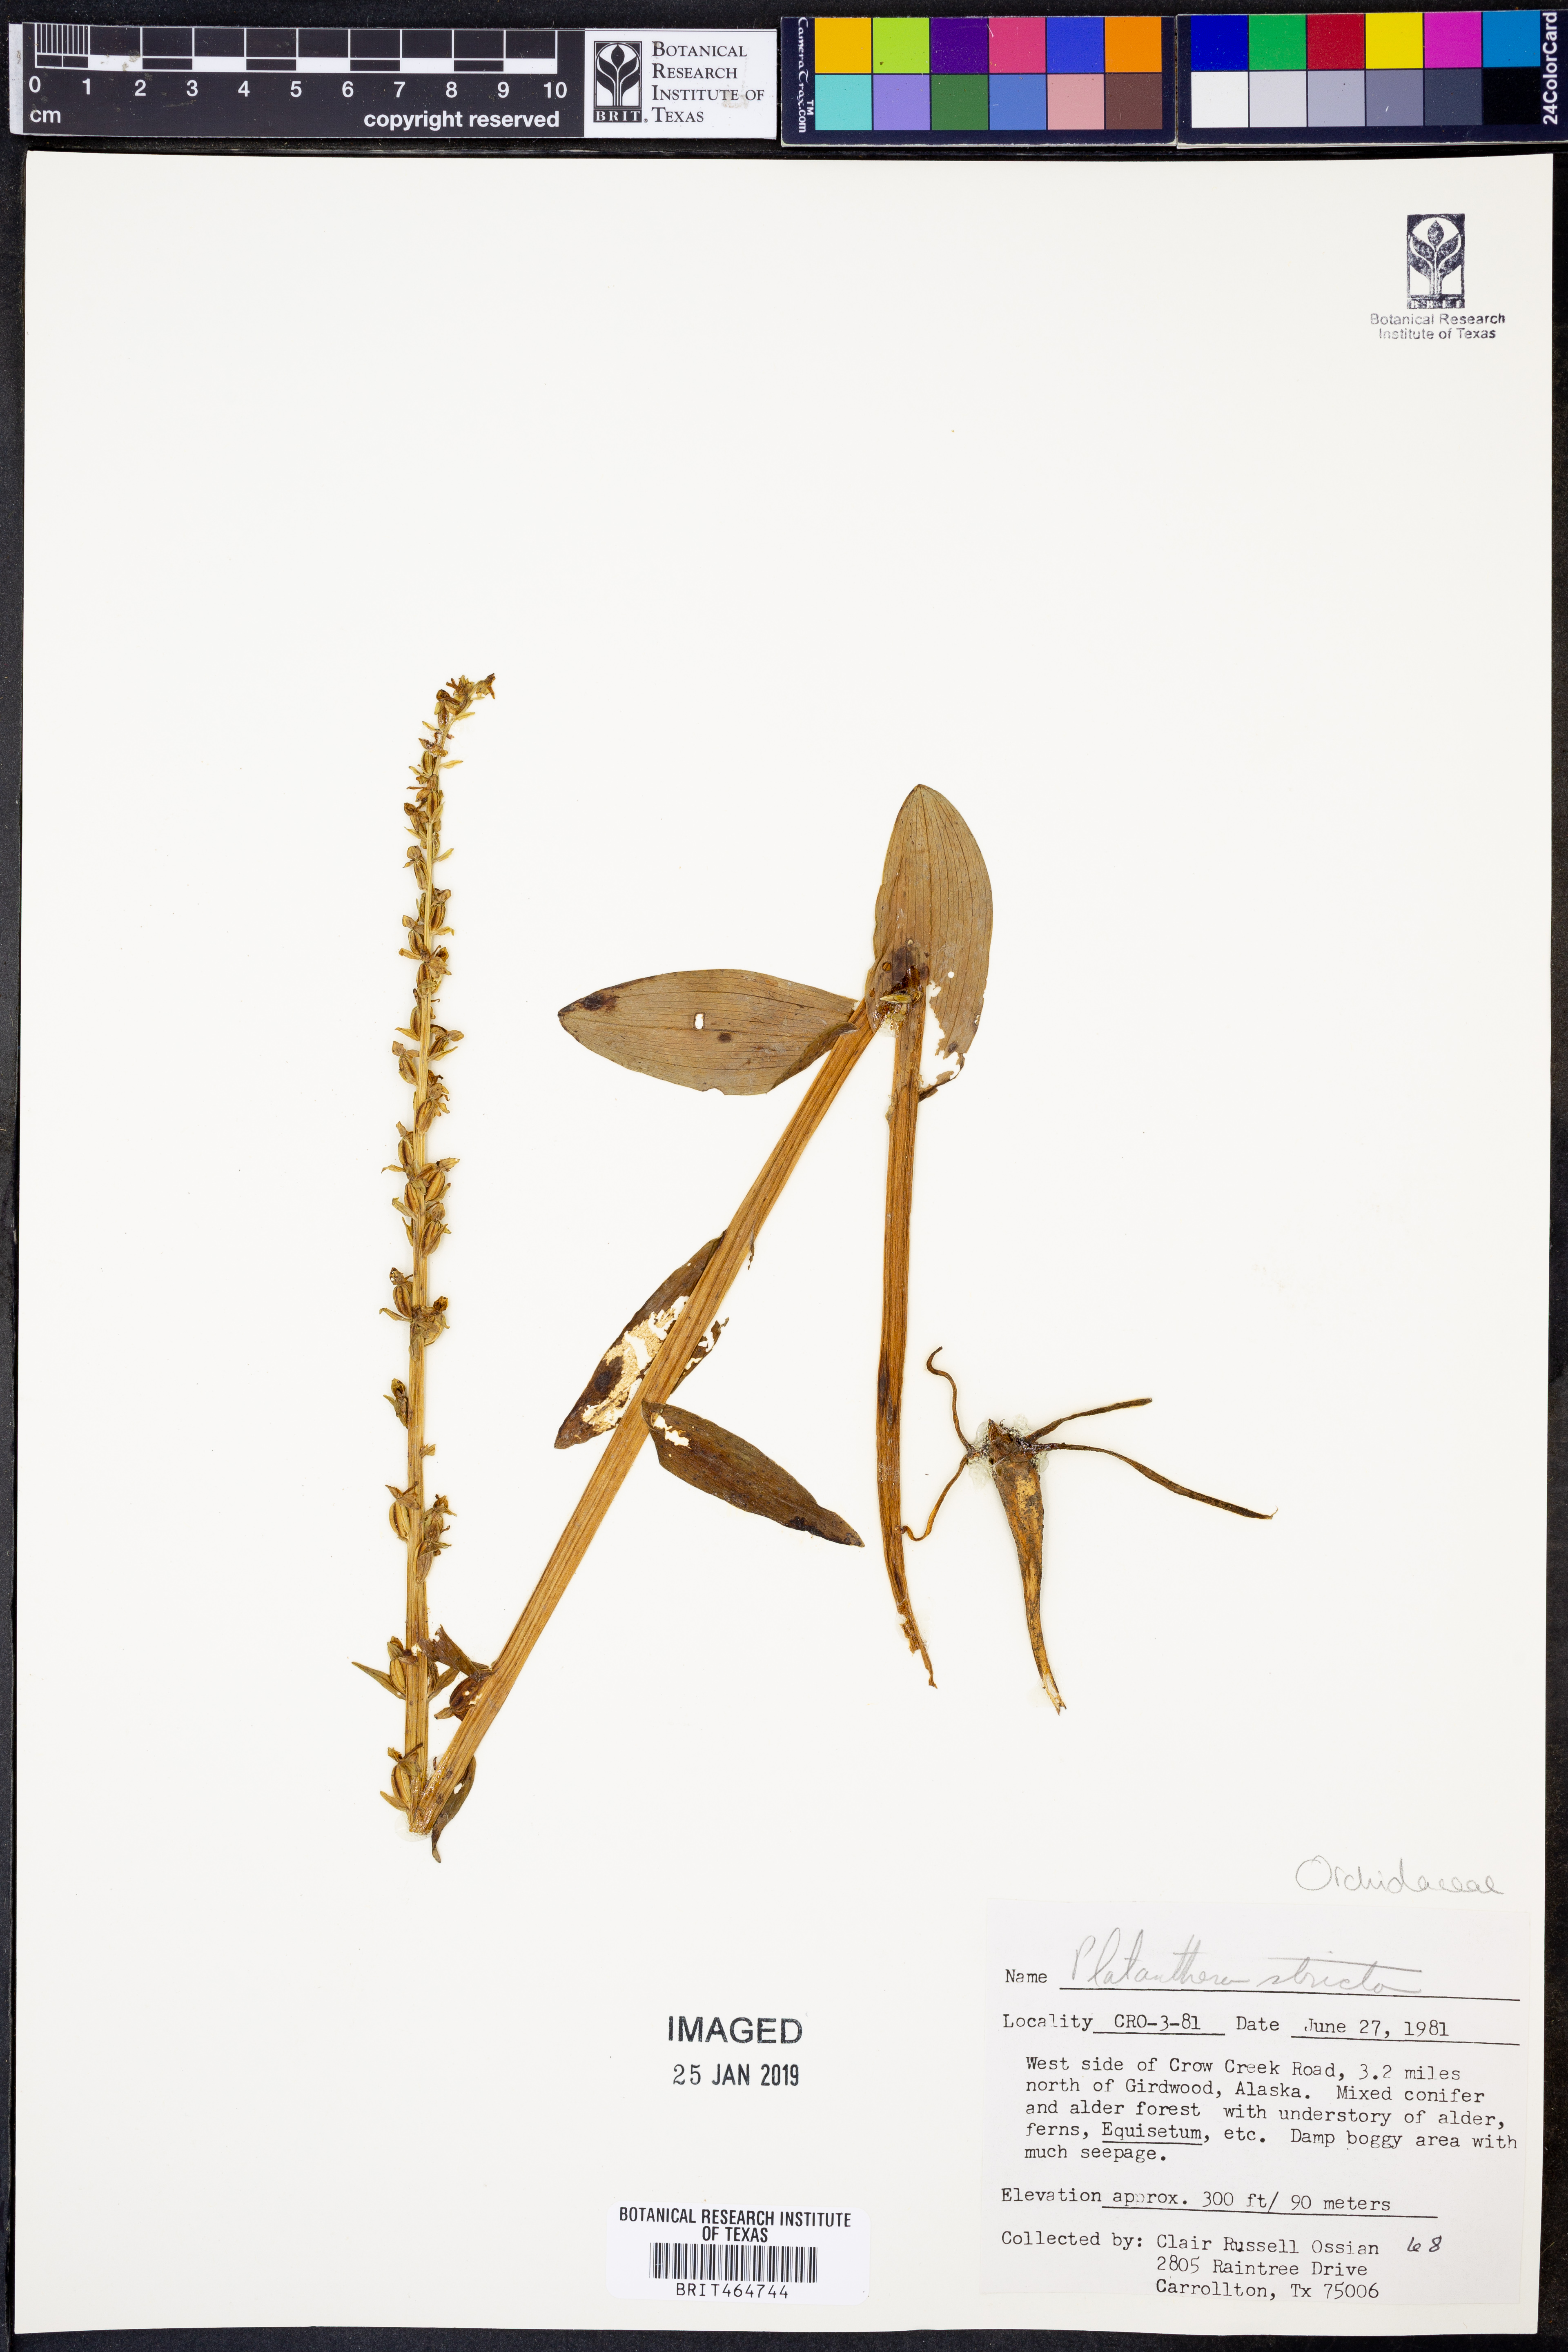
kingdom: Plantae
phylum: Tracheophyta
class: Liliopsida
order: Asparagales
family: Orchidaceae
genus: Platanthera
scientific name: Platanthera stricta
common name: Slender bog orchid
